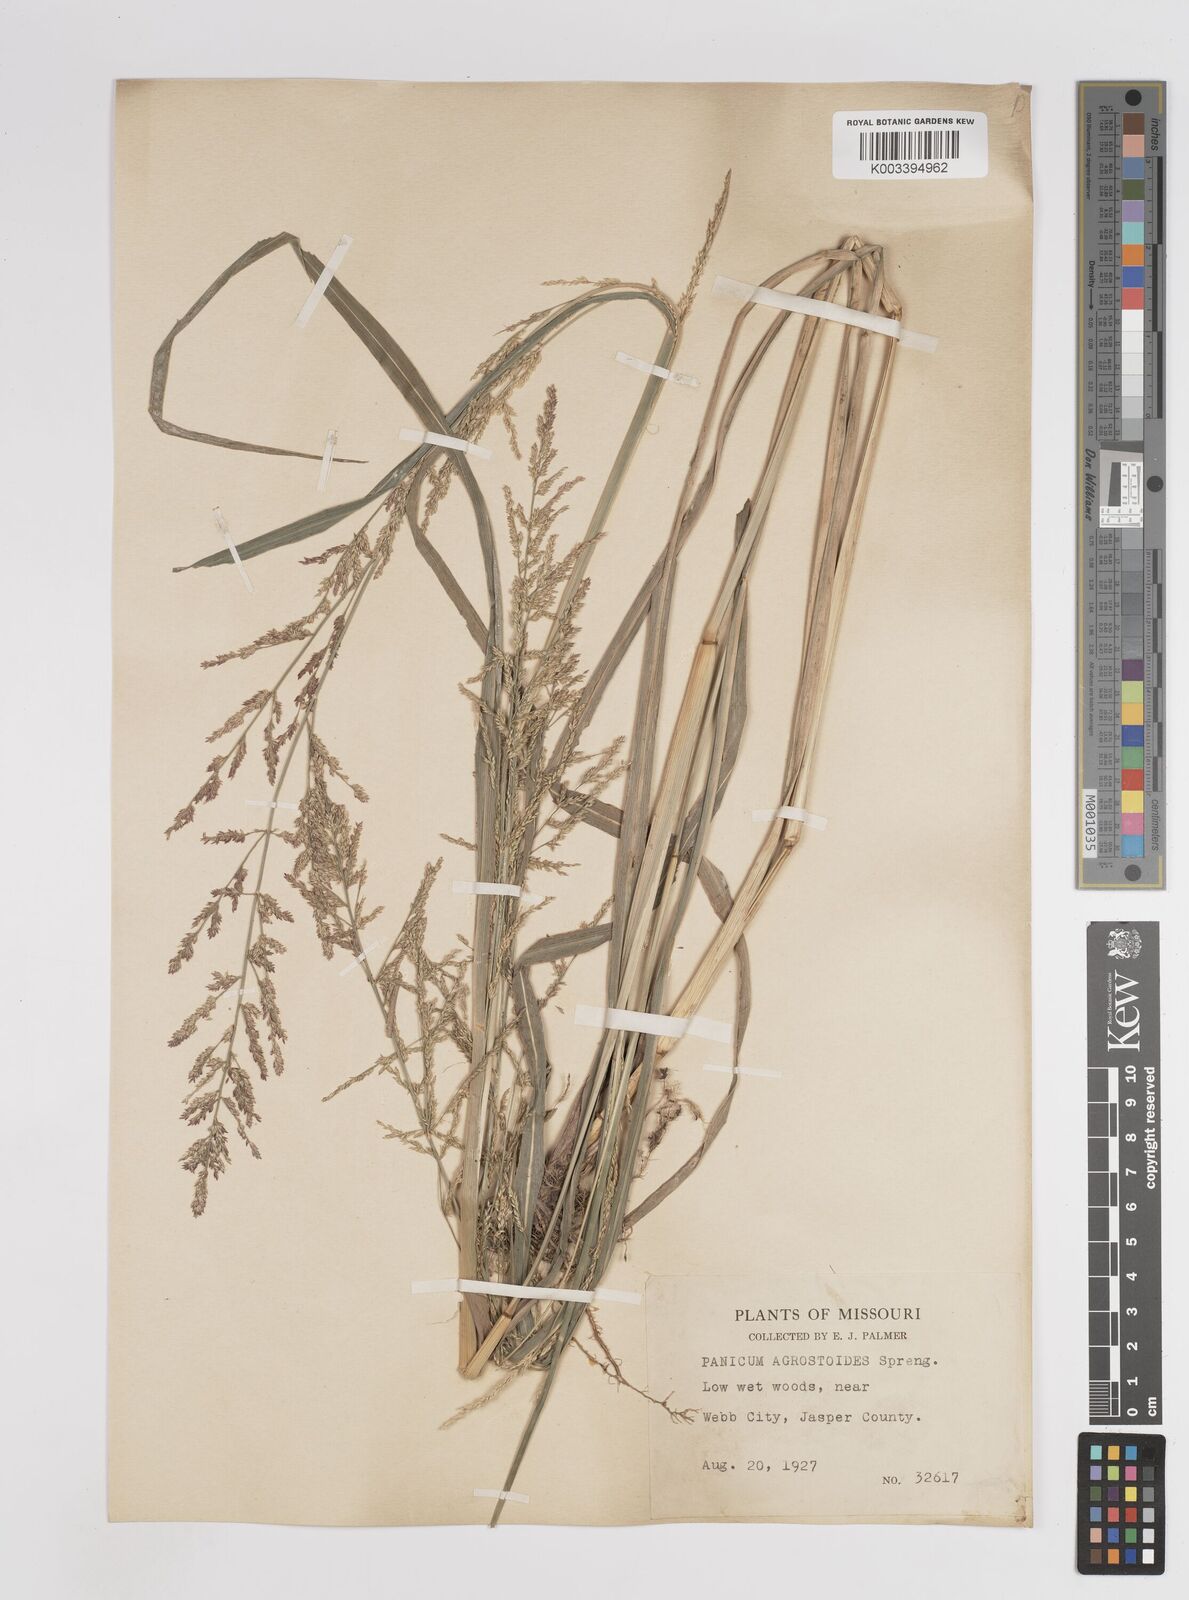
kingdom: Plantae
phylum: Tracheophyta
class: Liliopsida
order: Poales
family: Poaceae
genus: Steinchisma
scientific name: Steinchisma laxum
